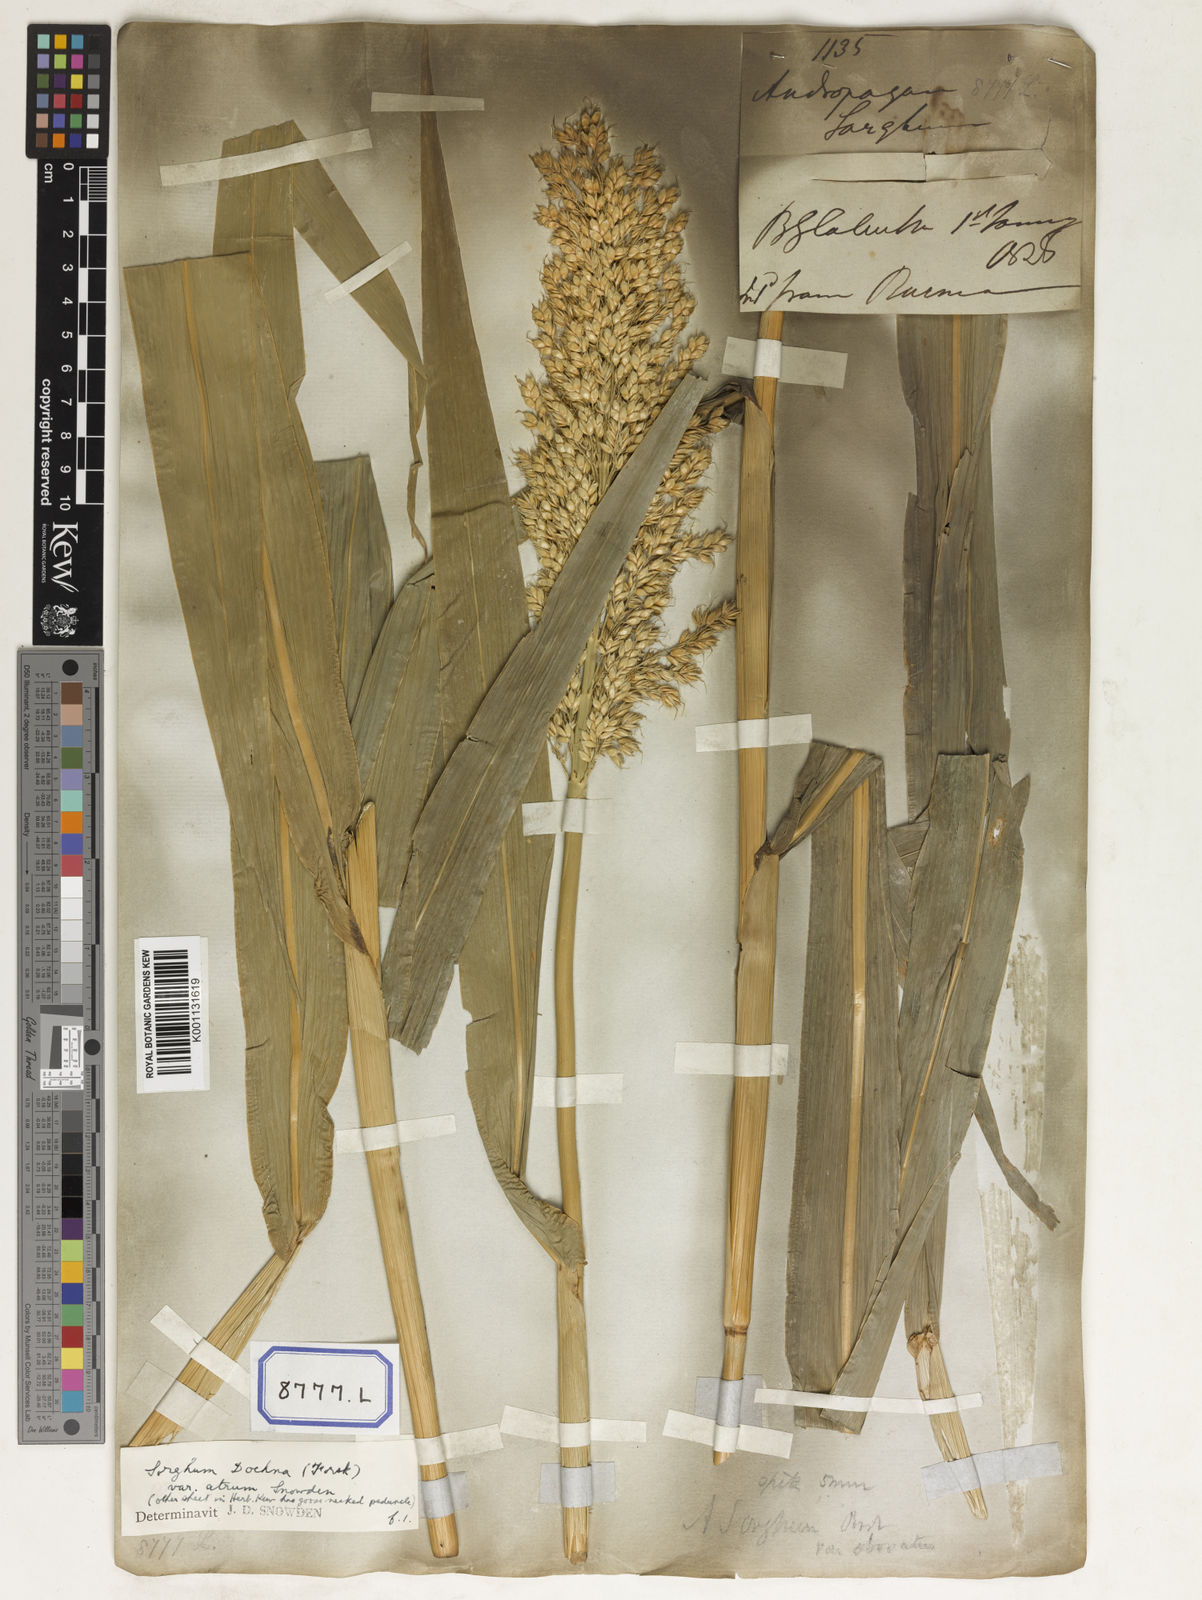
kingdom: Plantae
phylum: Tracheophyta
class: Liliopsida
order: Poales
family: Poaceae
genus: Sorghum
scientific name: Sorghum bicolor
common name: Sorghum
